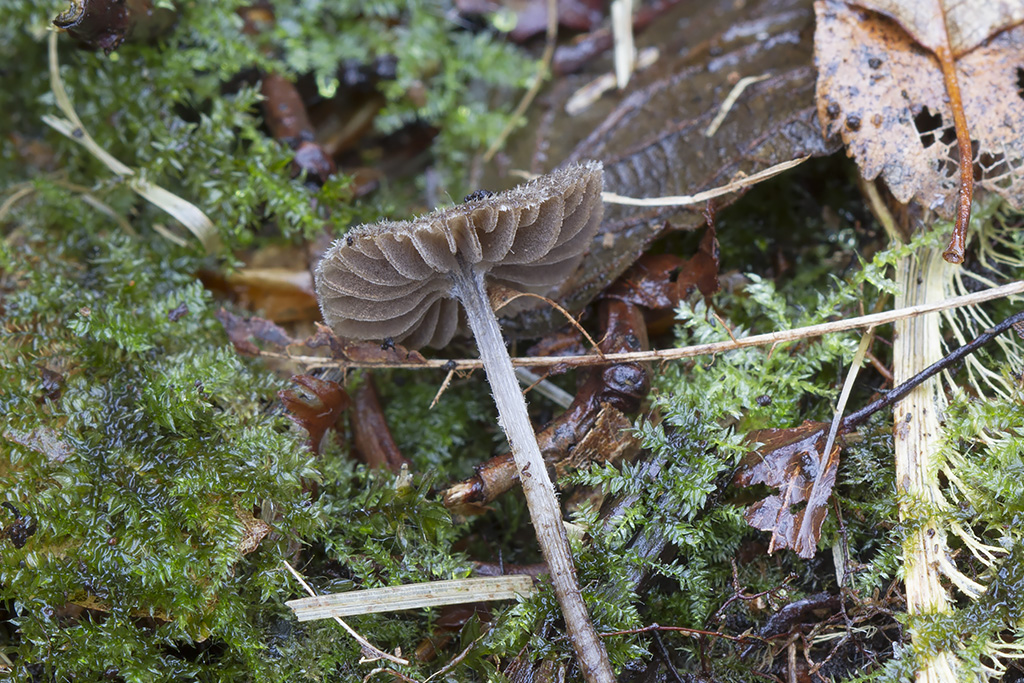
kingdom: Fungi
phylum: Basidiomycota
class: Agaricomycetes
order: Agaricales
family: Entolomataceae
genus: Entoloma
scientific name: Entoloma dysthaloides
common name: dyster rødblad
